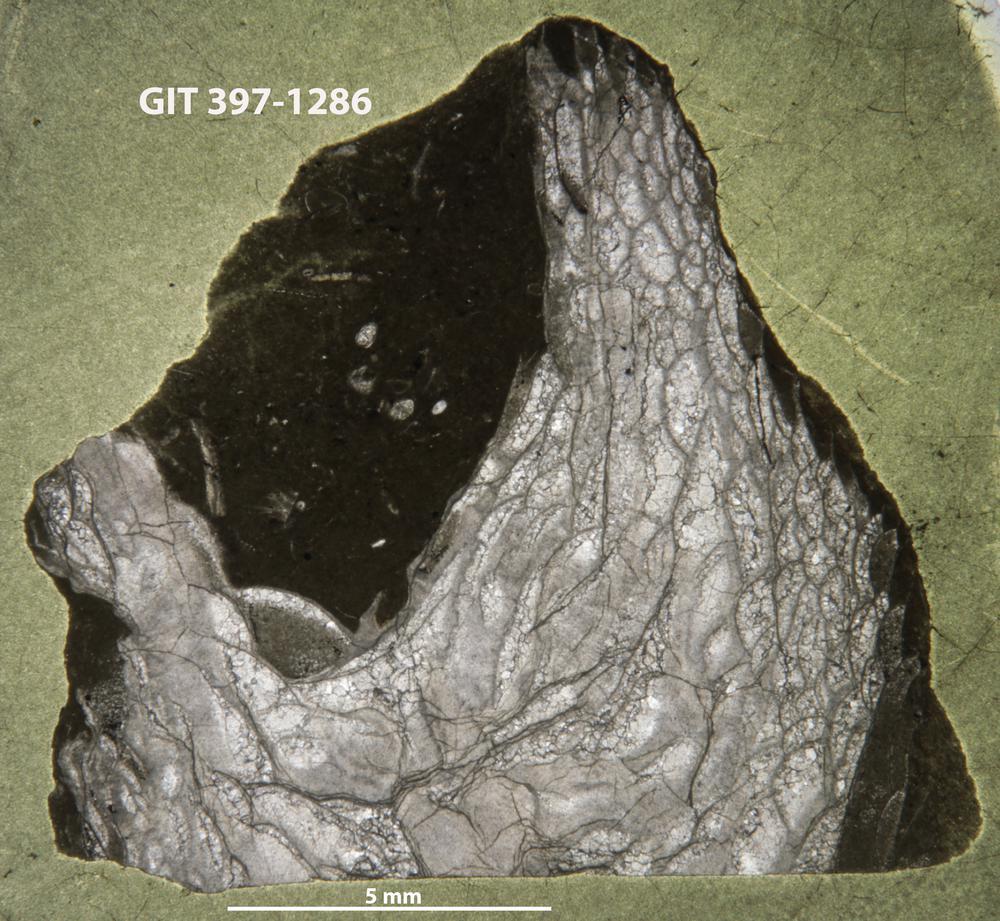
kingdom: Animalia
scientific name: Animalia
